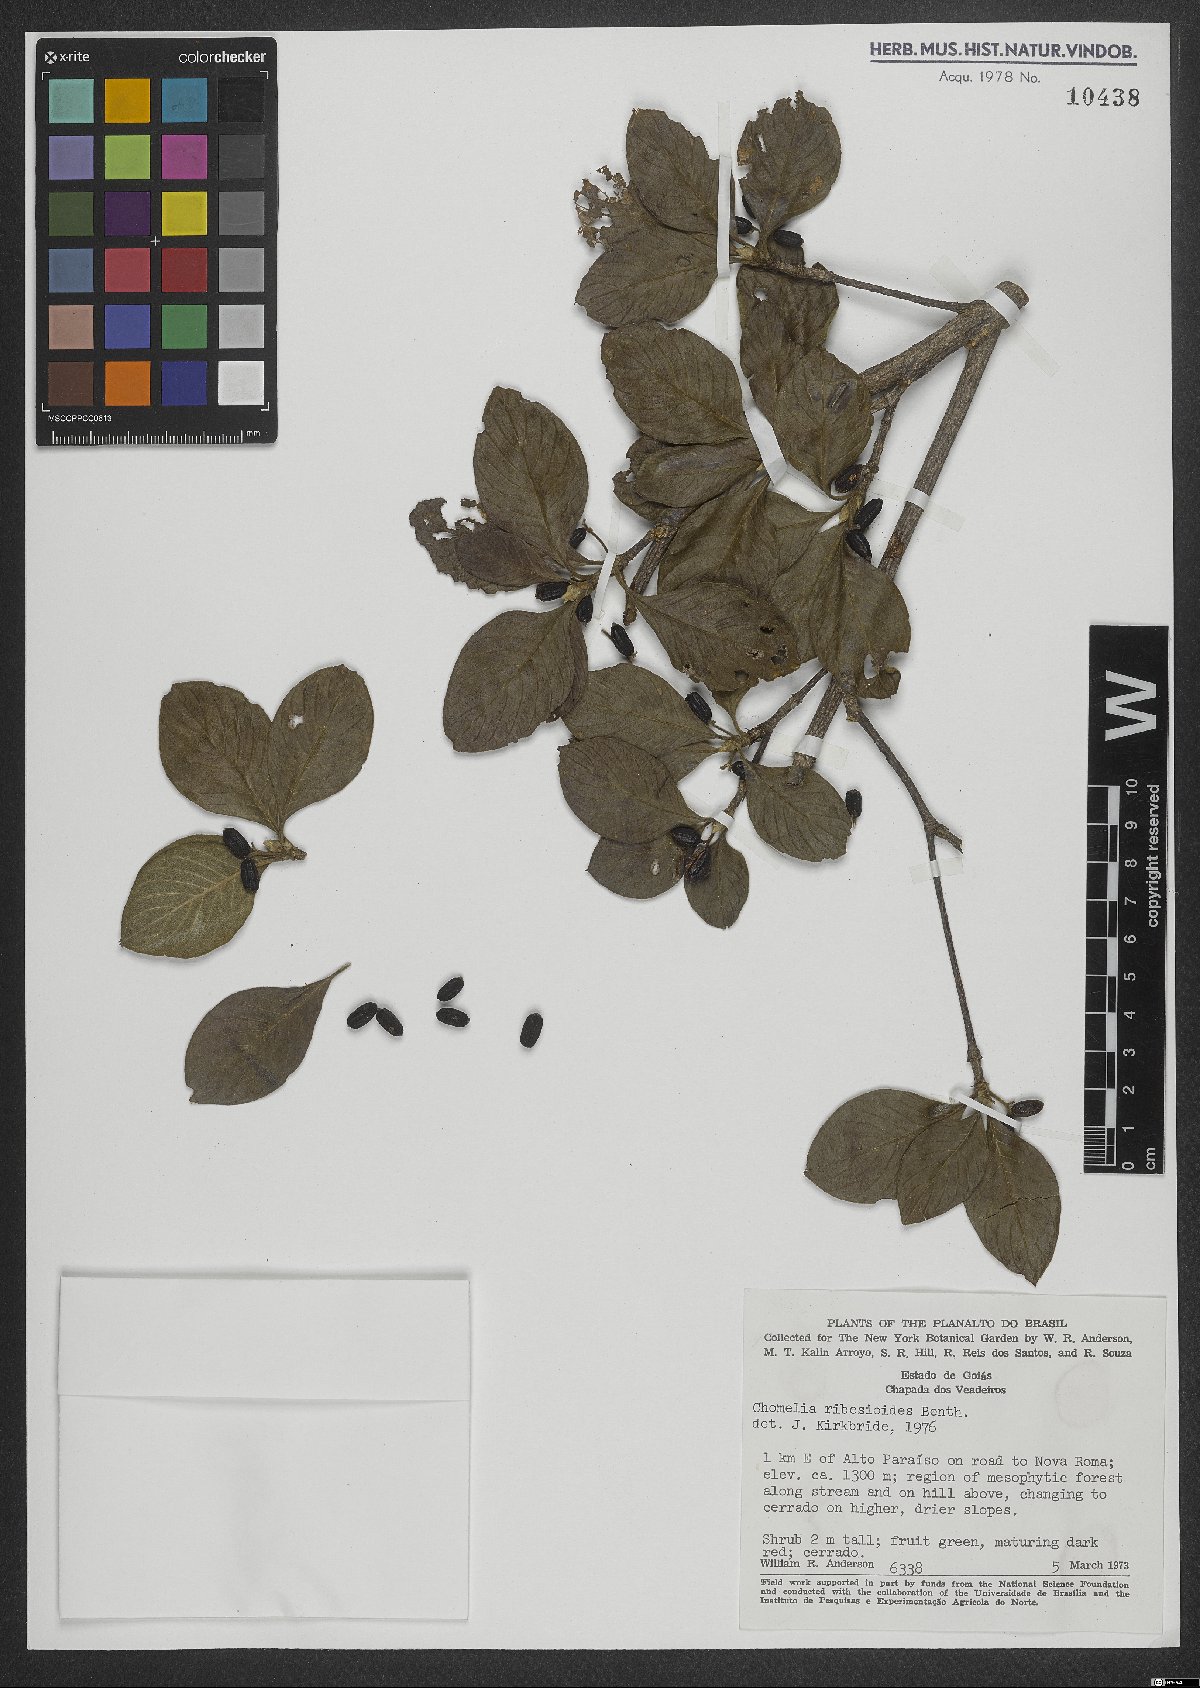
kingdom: Plantae
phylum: Tracheophyta
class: Magnoliopsida
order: Gentianales
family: Rubiaceae
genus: Chomelia
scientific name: Chomelia ribesioides
